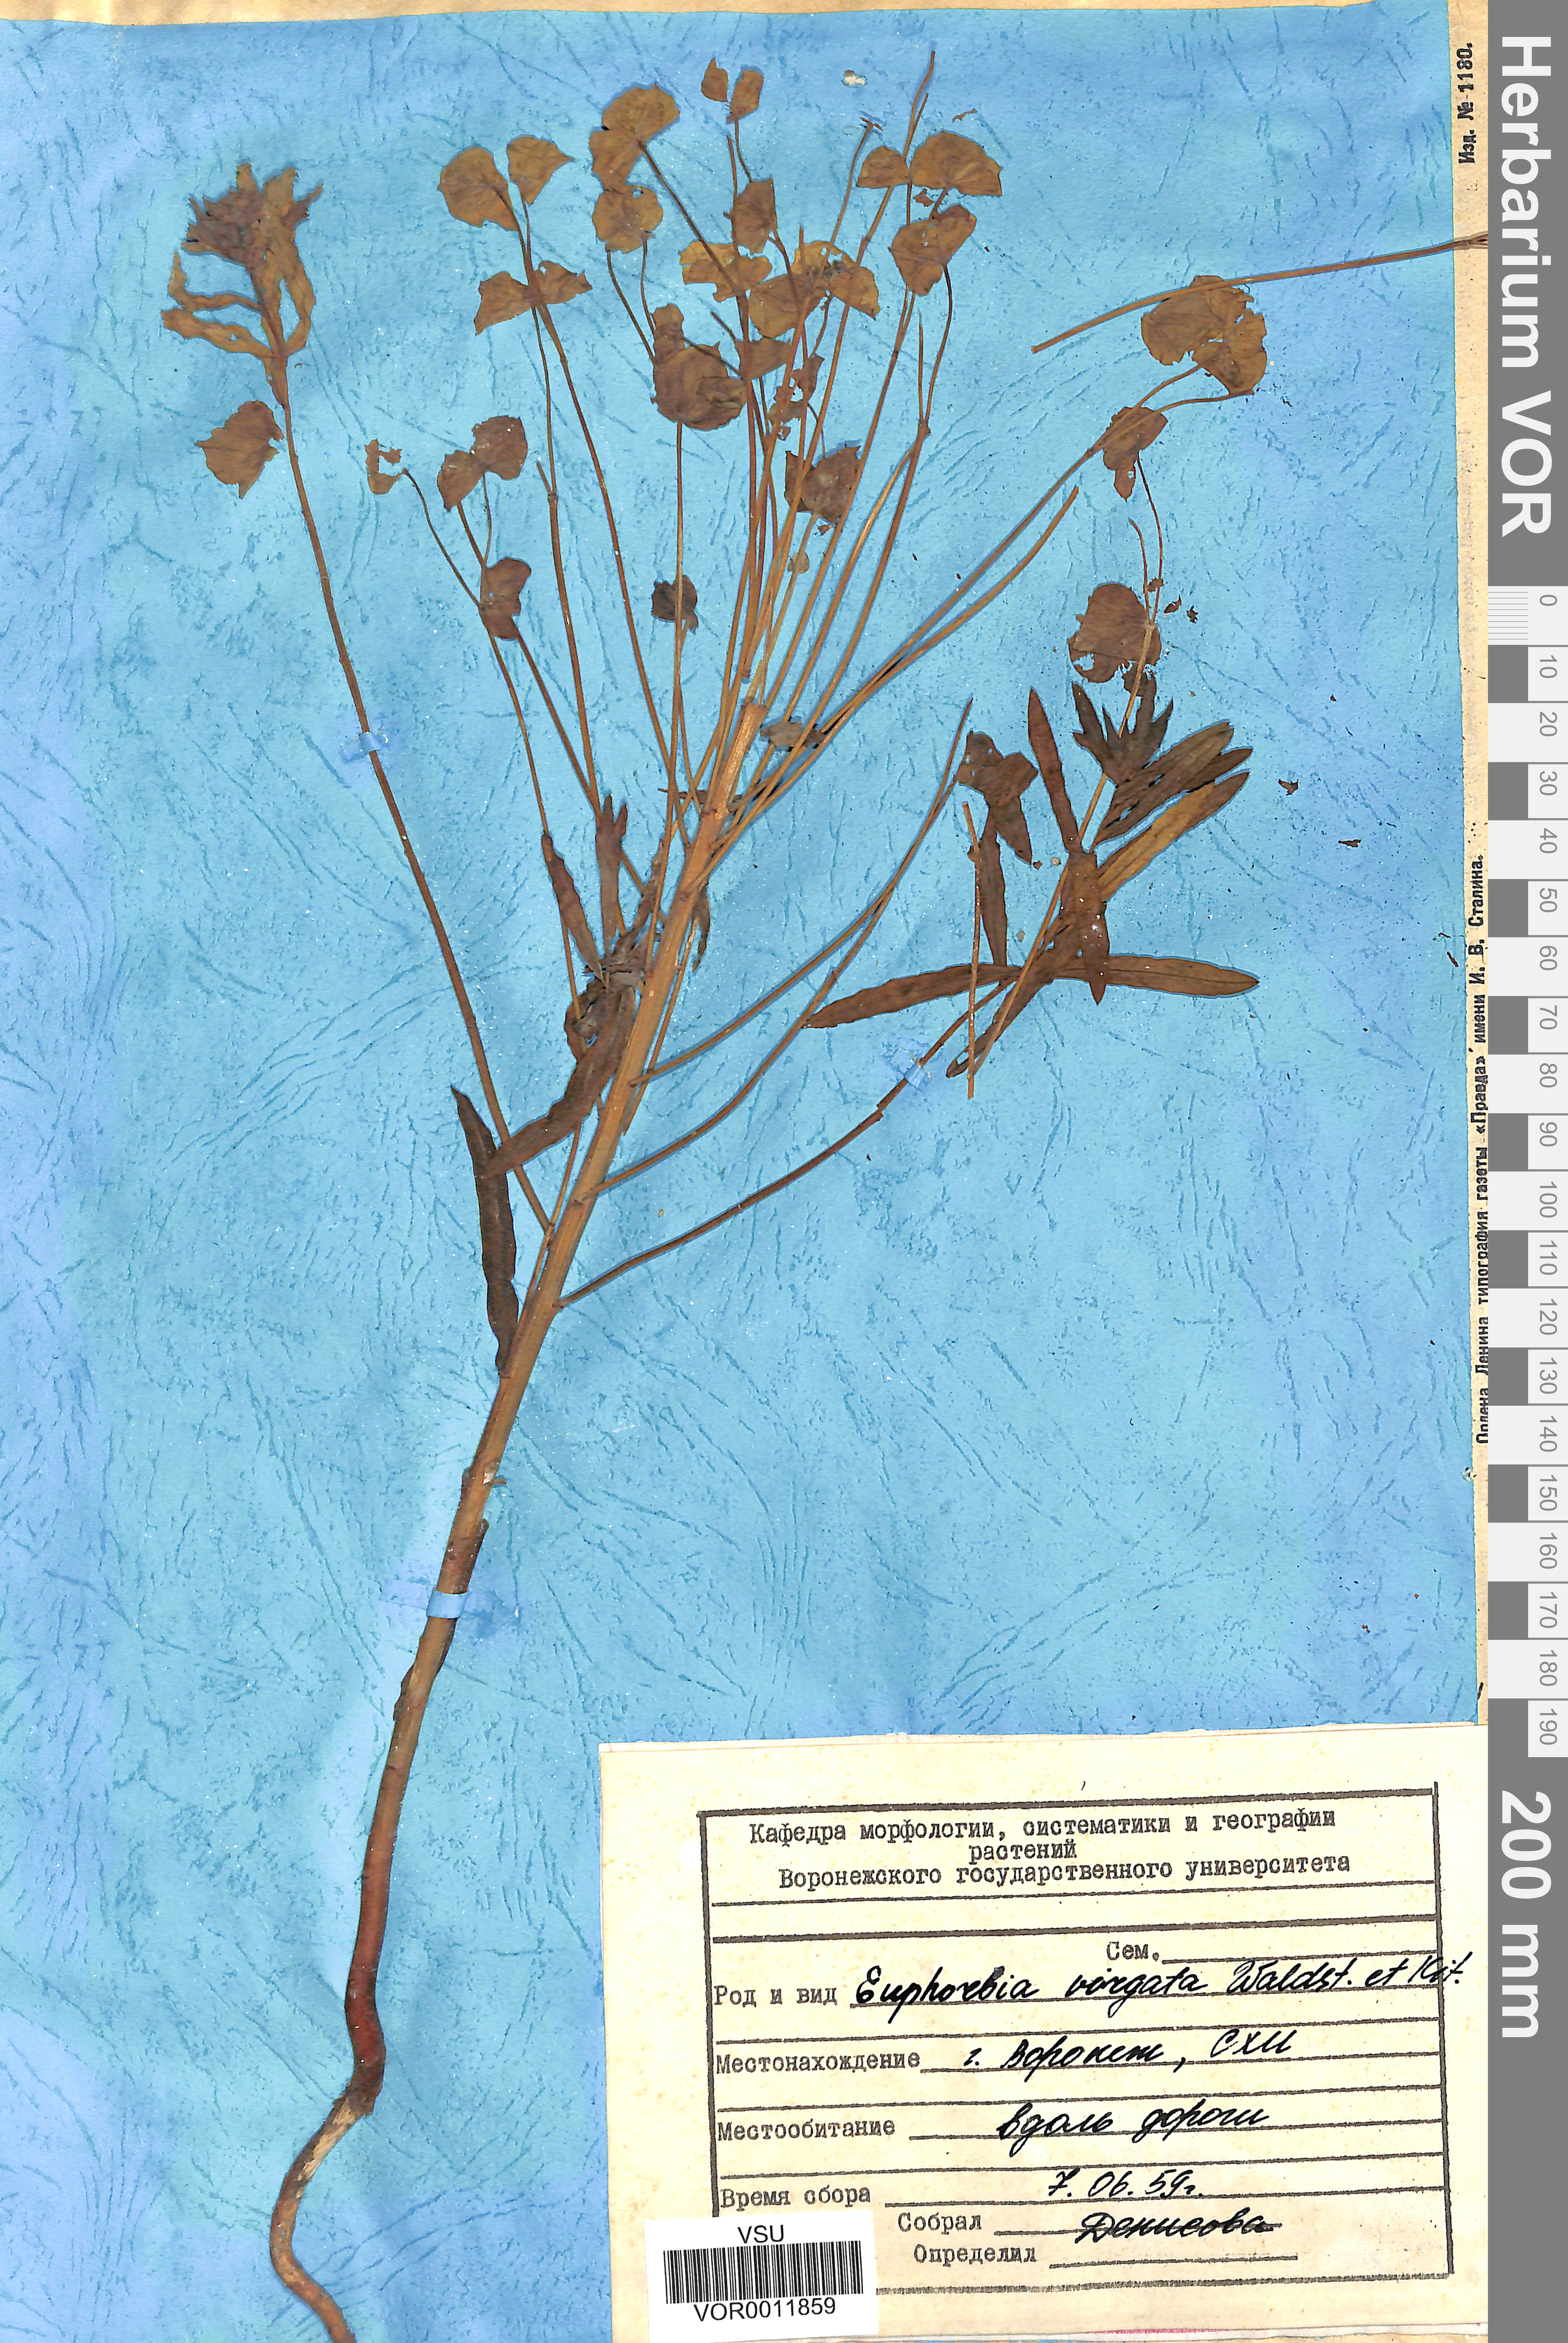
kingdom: Plantae
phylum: Tracheophyta
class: Magnoliopsida
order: Malpighiales
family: Euphorbiaceae
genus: Euphorbia
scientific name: Euphorbia virgata
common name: Leafy spurge
